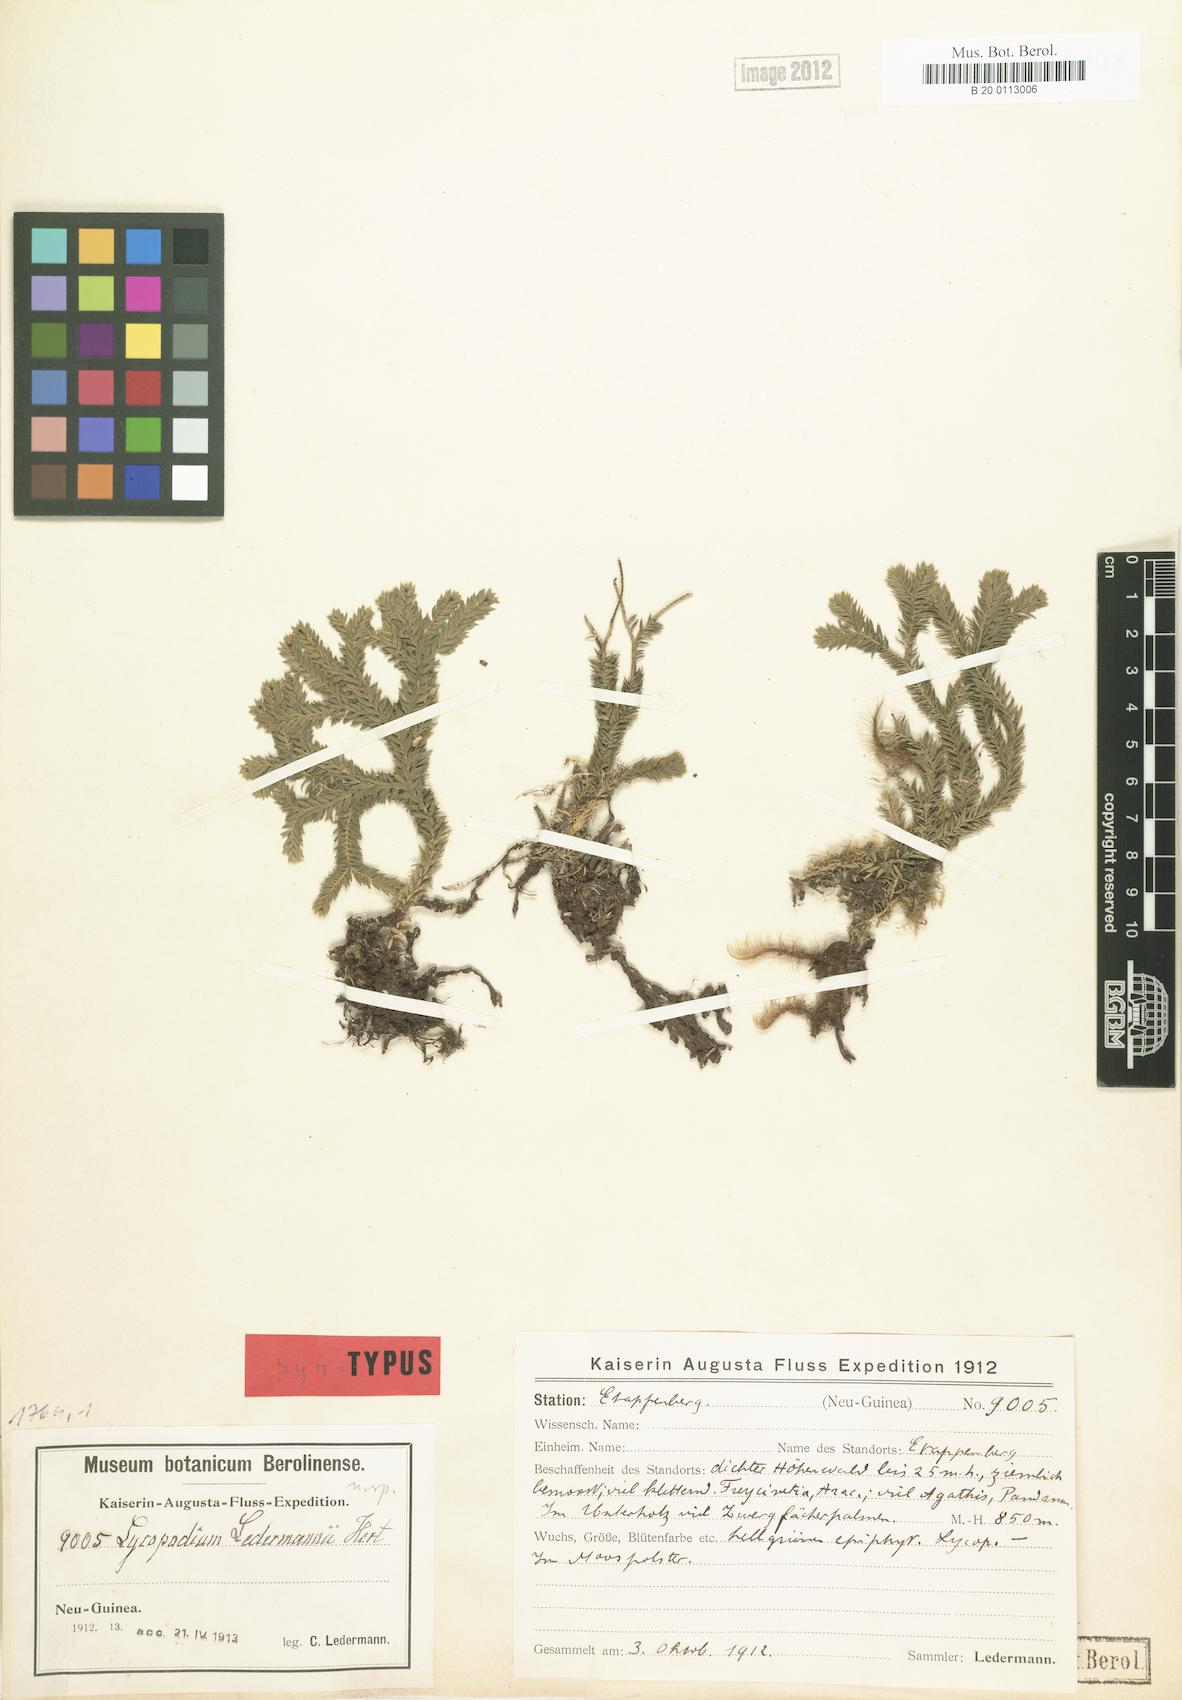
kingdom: Plantae
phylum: Tracheophyta
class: Lycopodiopsida
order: Lycopodiales
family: Lycopodiaceae
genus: Phlegmariurus
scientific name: Phlegmariurus ledermannii
